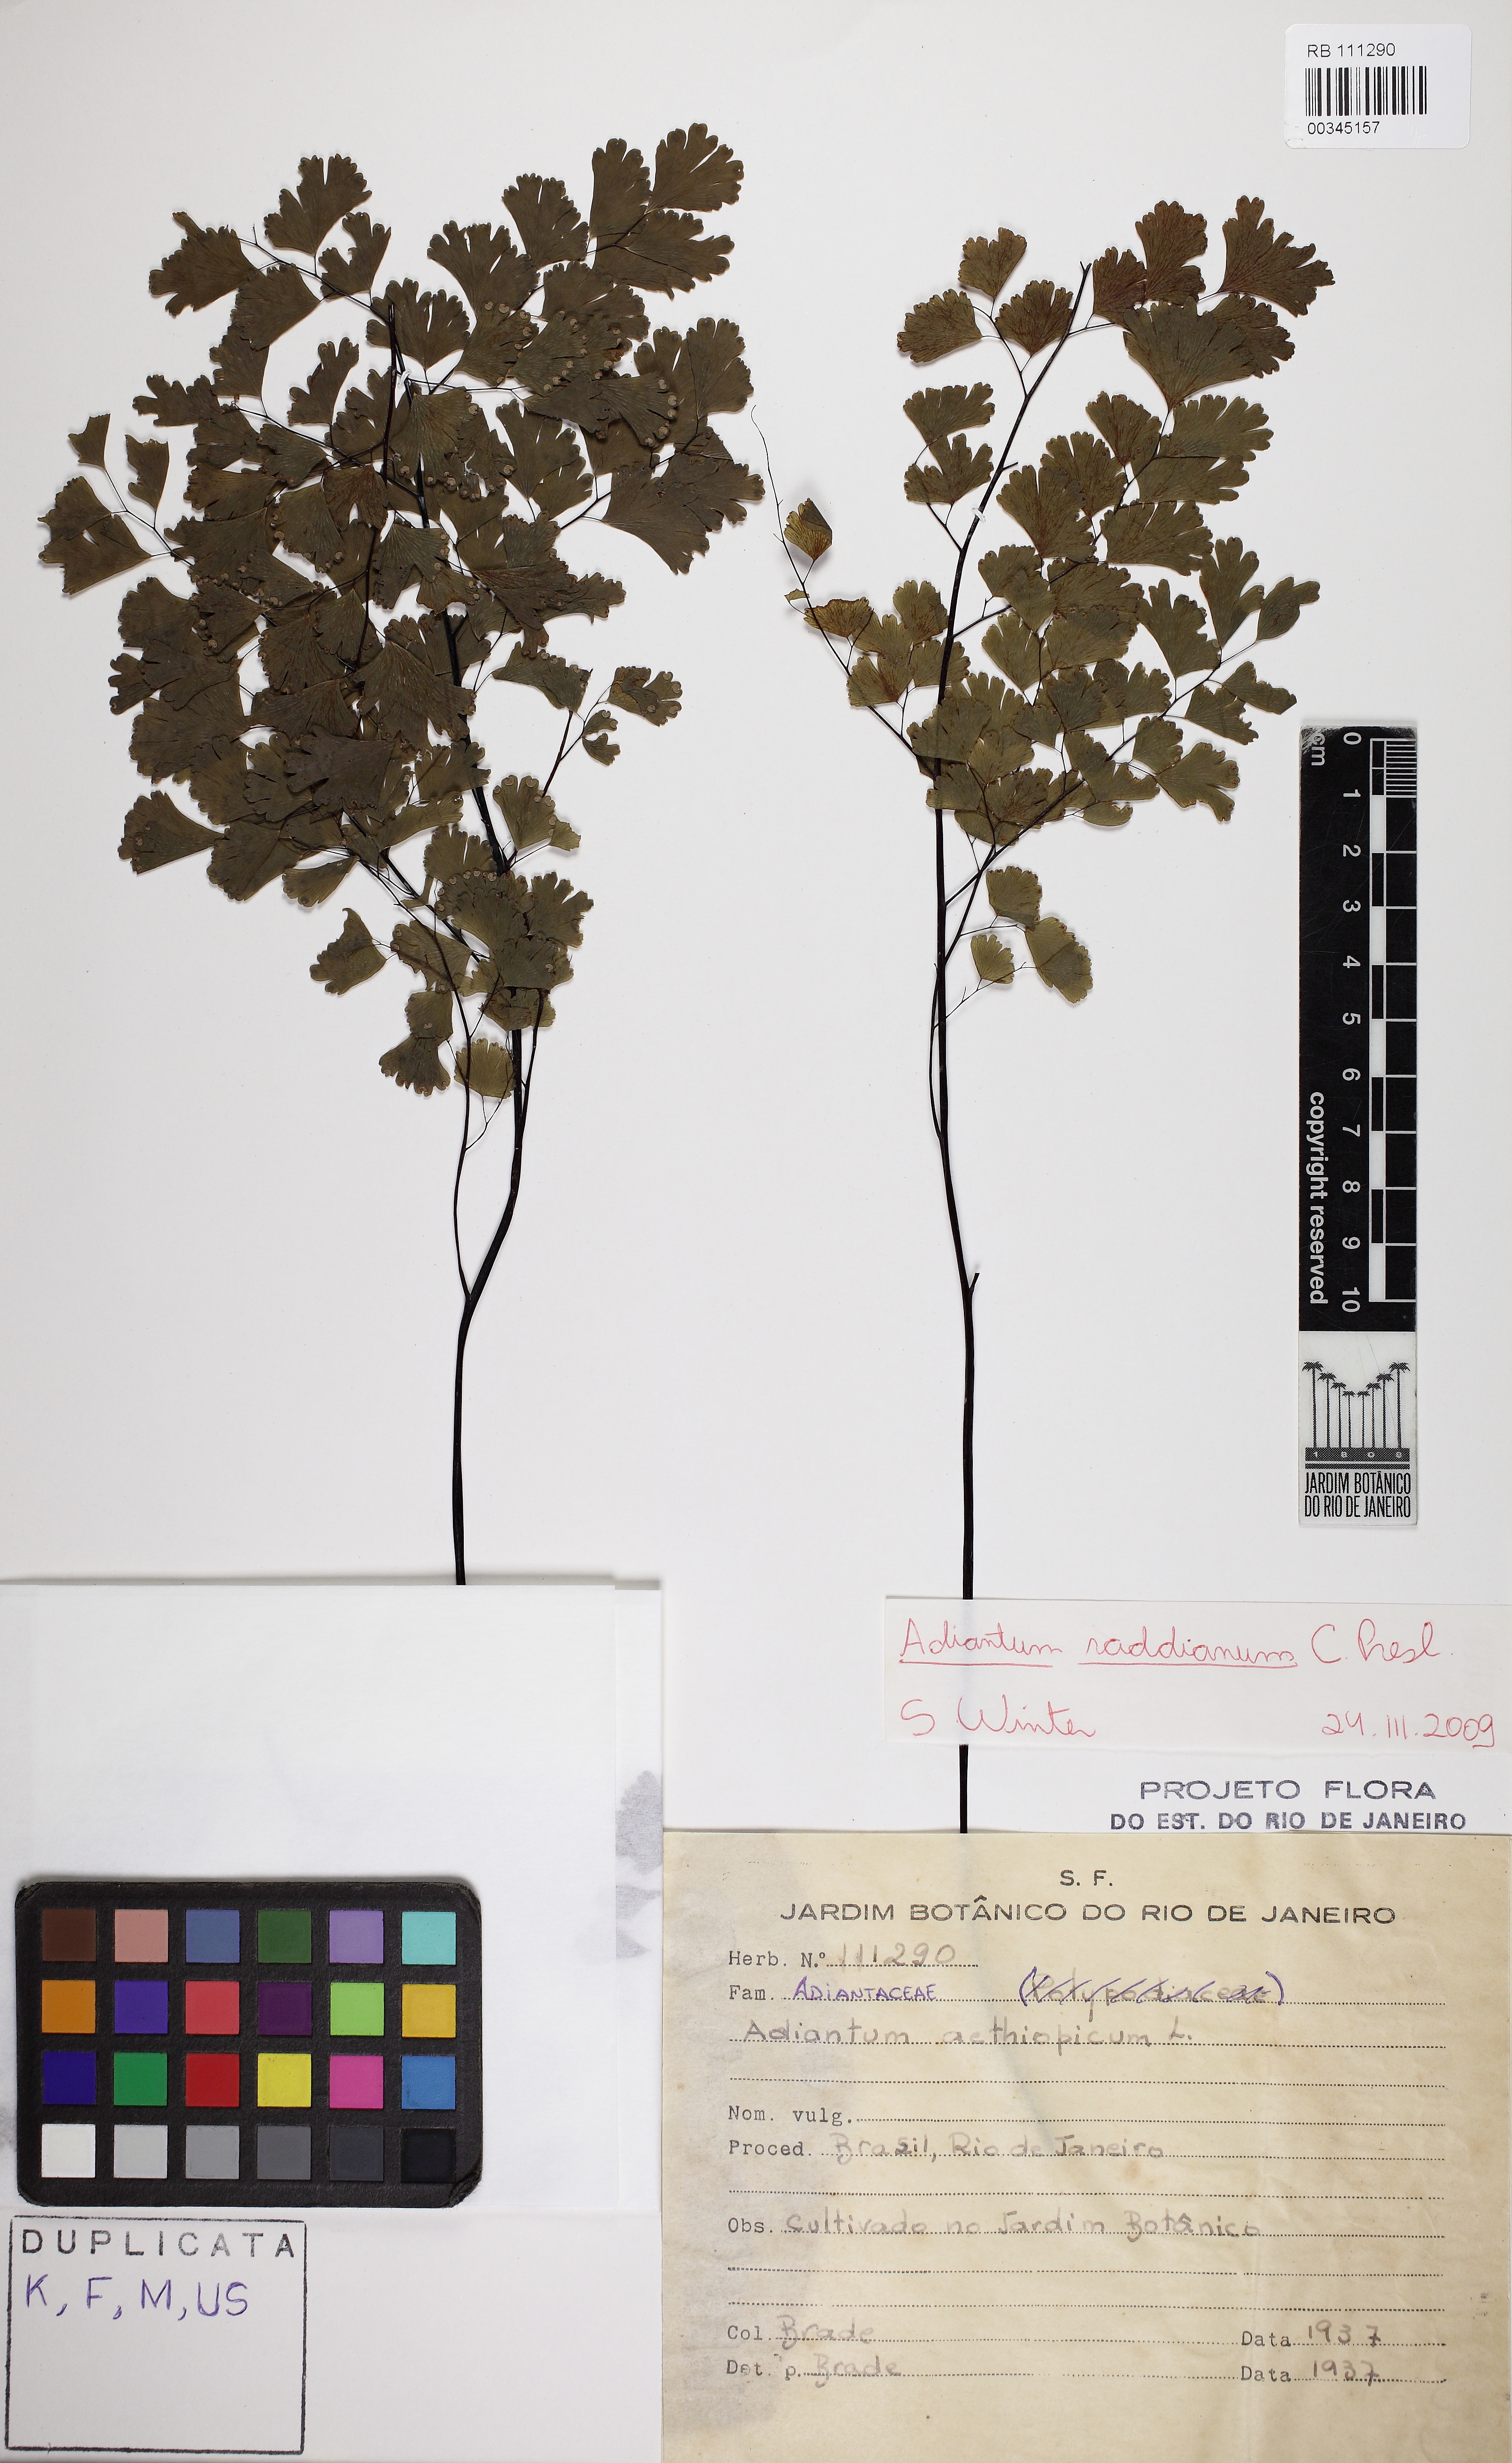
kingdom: Plantae
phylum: Tracheophyta
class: Polypodiopsida
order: Polypodiales
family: Pteridaceae
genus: Adiantum
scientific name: Adiantum lorentzii
